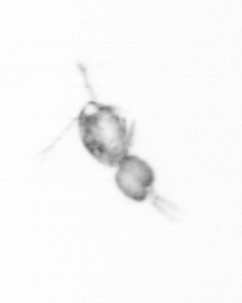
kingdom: Animalia
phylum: Arthropoda
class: Copepoda
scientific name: Copepoda
